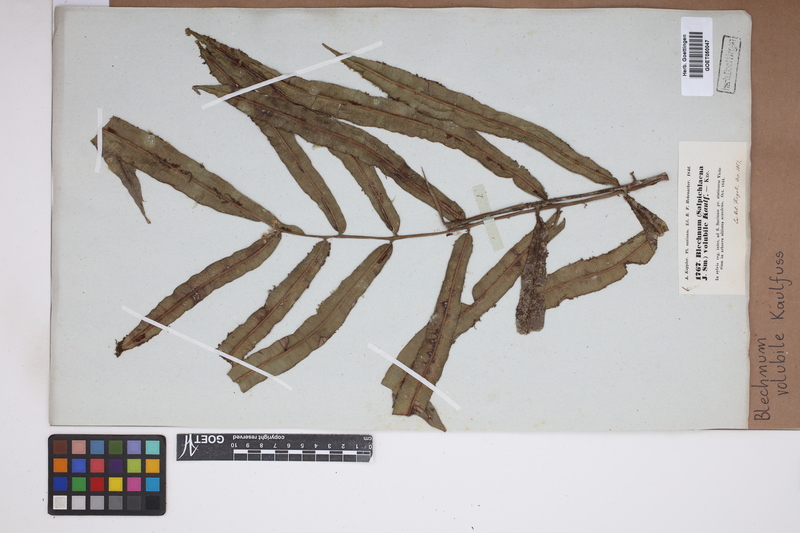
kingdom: Plantae
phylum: Tracheophyta
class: Polypodiopsida
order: Polypodiales
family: Blechnaceae
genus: Salpichlaena
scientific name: Salpichlaena volubilis
